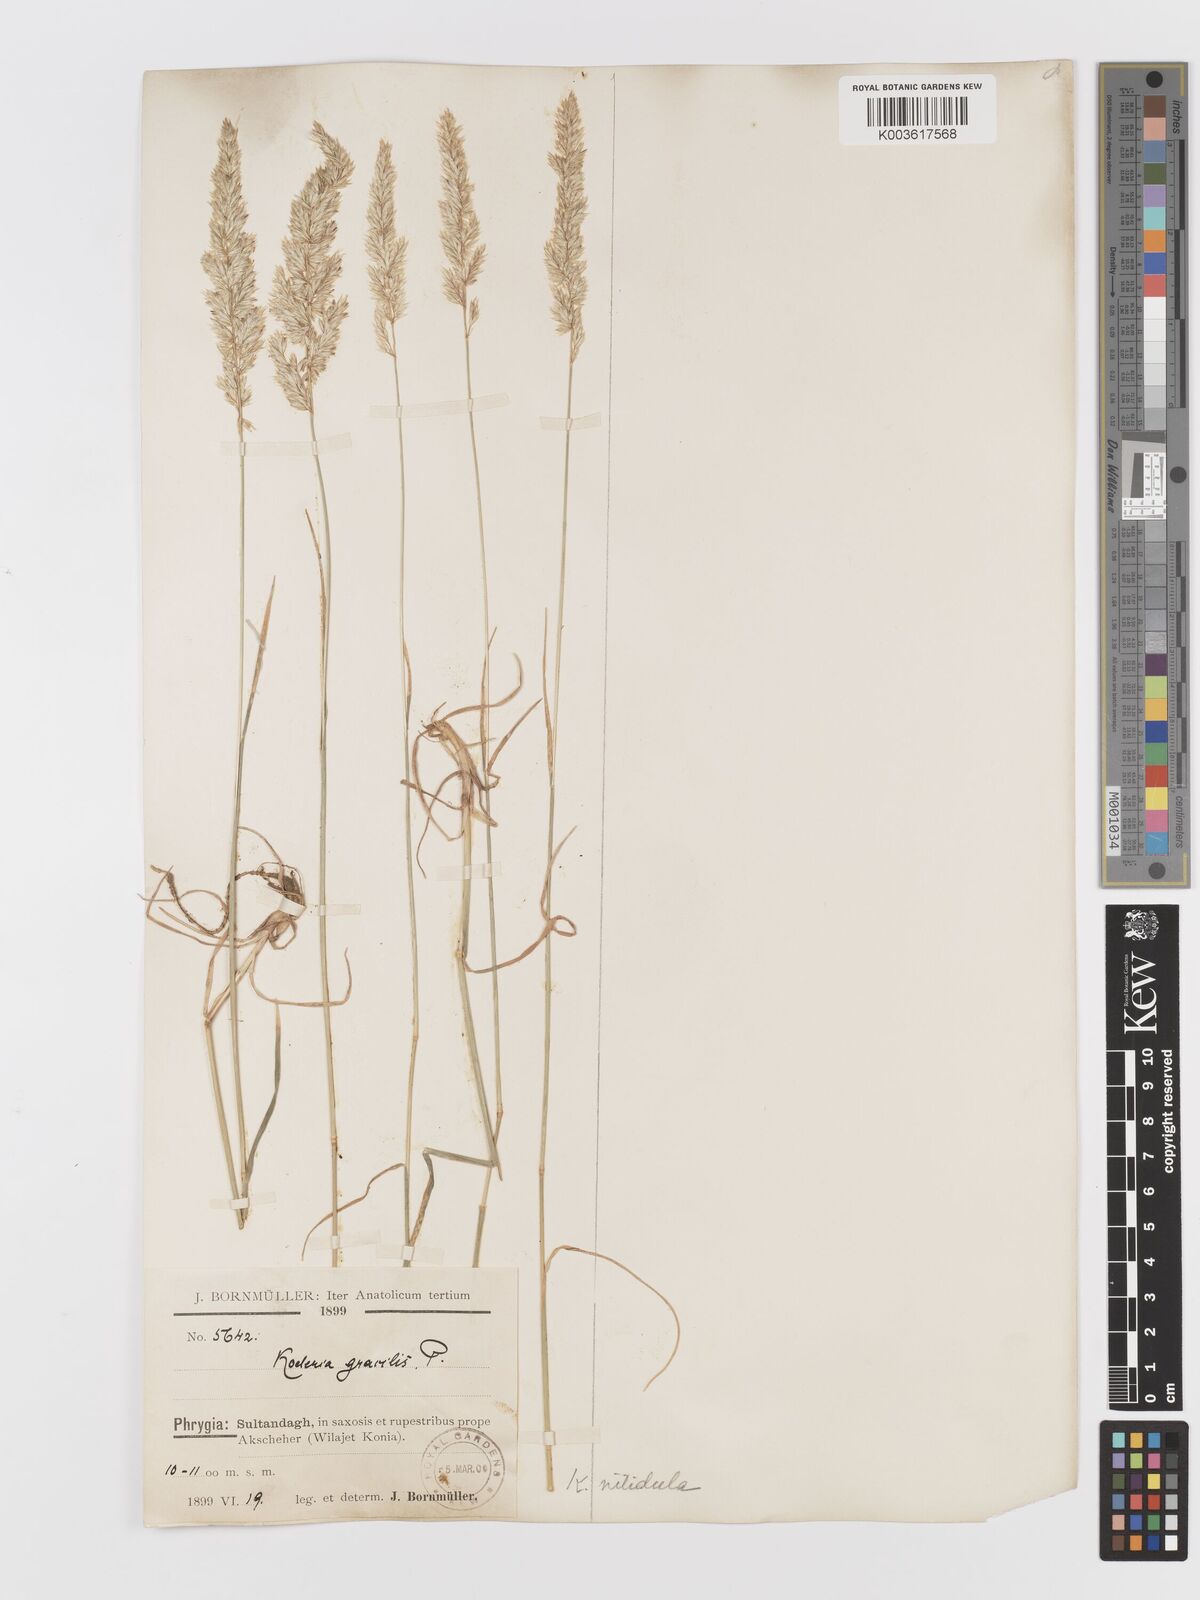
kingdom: Plantae
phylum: Tracheophyta
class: Liliopsida
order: Poales
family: Poaceae
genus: Koeleria
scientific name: Koeleria nitidula
